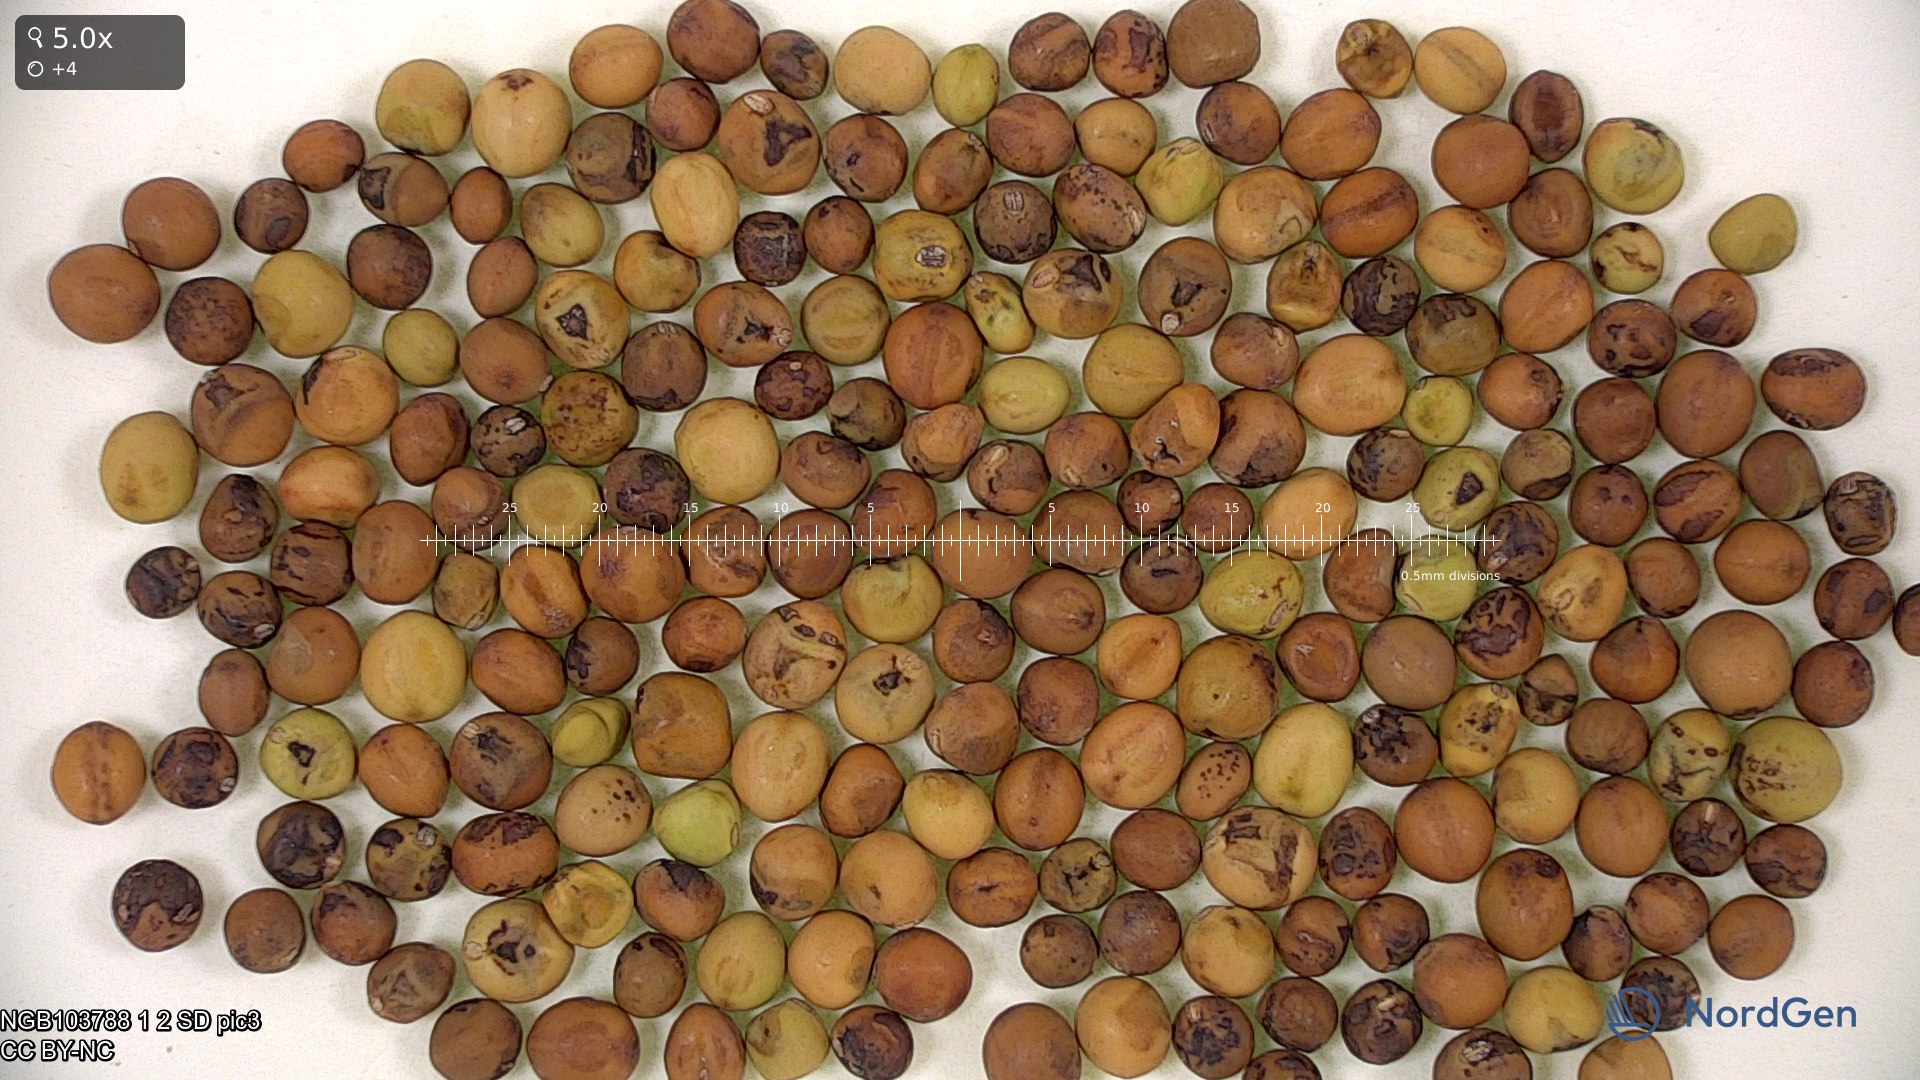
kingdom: Plantae
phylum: Tracheophyta
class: Magnoliopsida
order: Fabales
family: Fabaceae
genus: Lathyrus
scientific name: Lathyrus oleraceus
